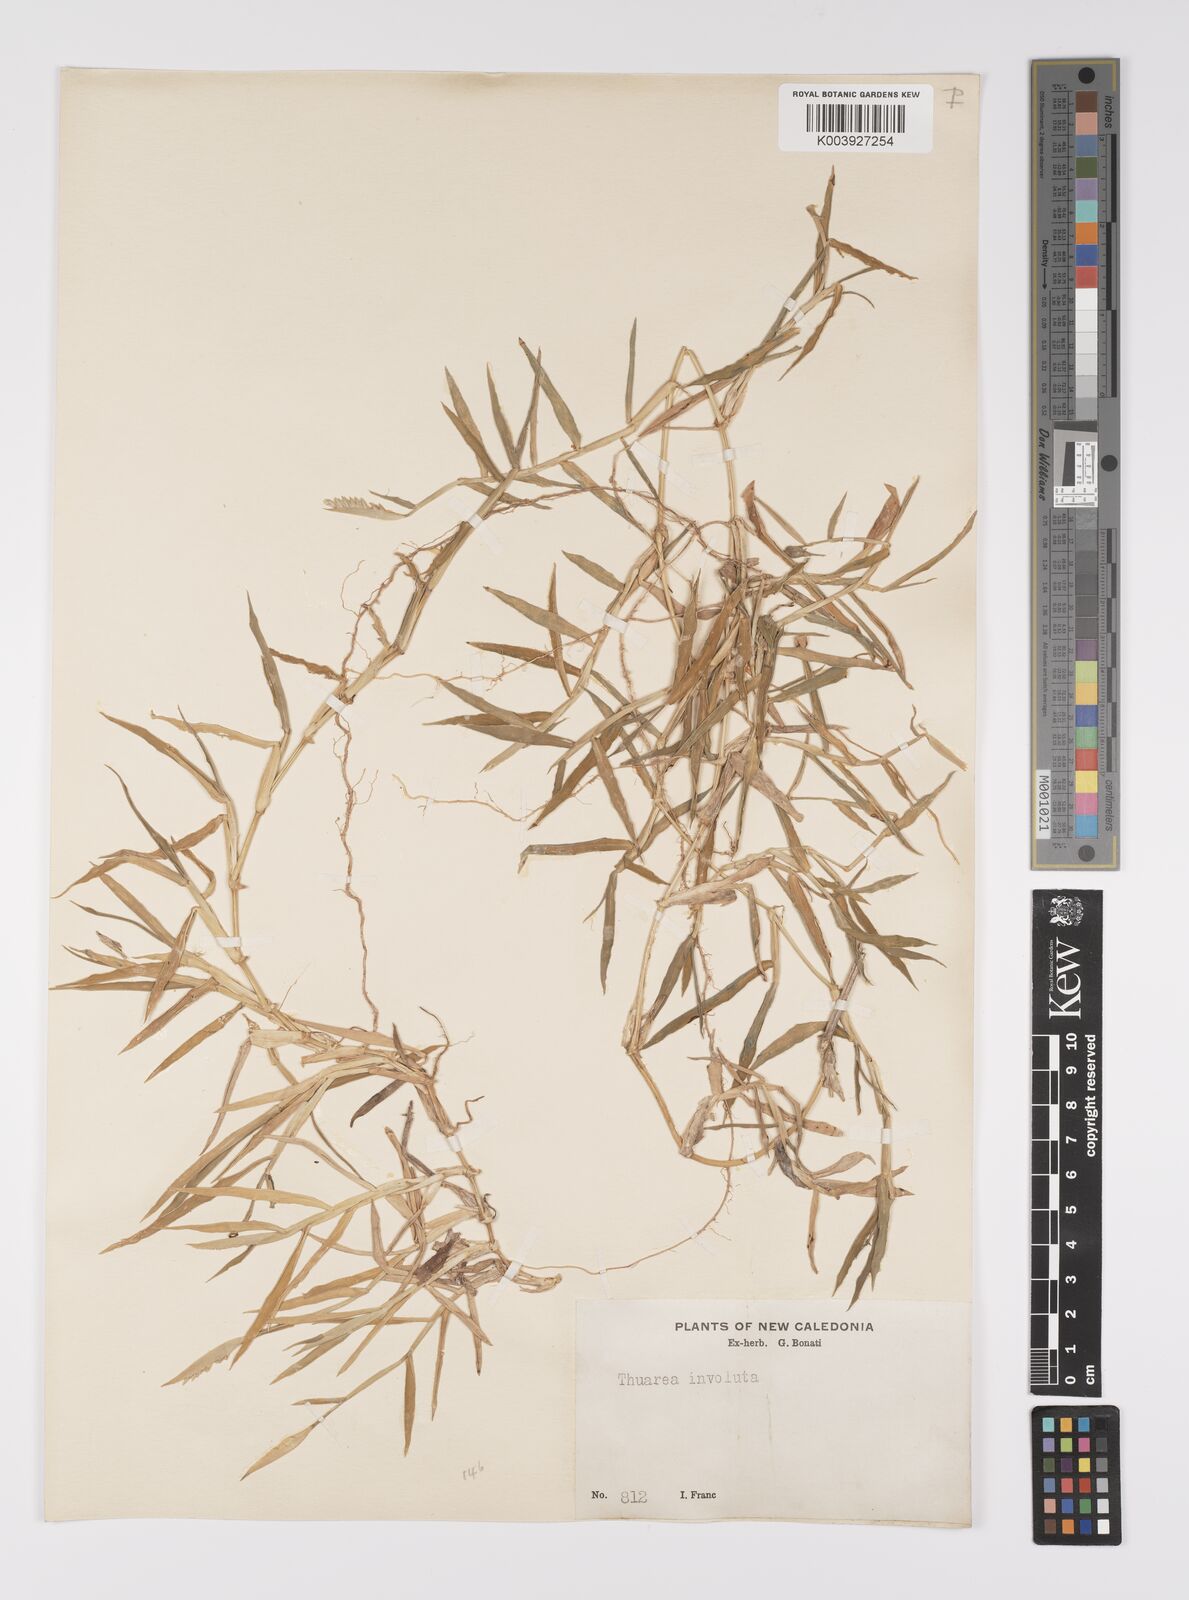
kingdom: Plantae
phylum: Tracheophyta
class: Liliopsida
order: Poales
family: Poaceae
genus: Thuarea
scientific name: Thuarea involuta
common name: Tropical beach grass
